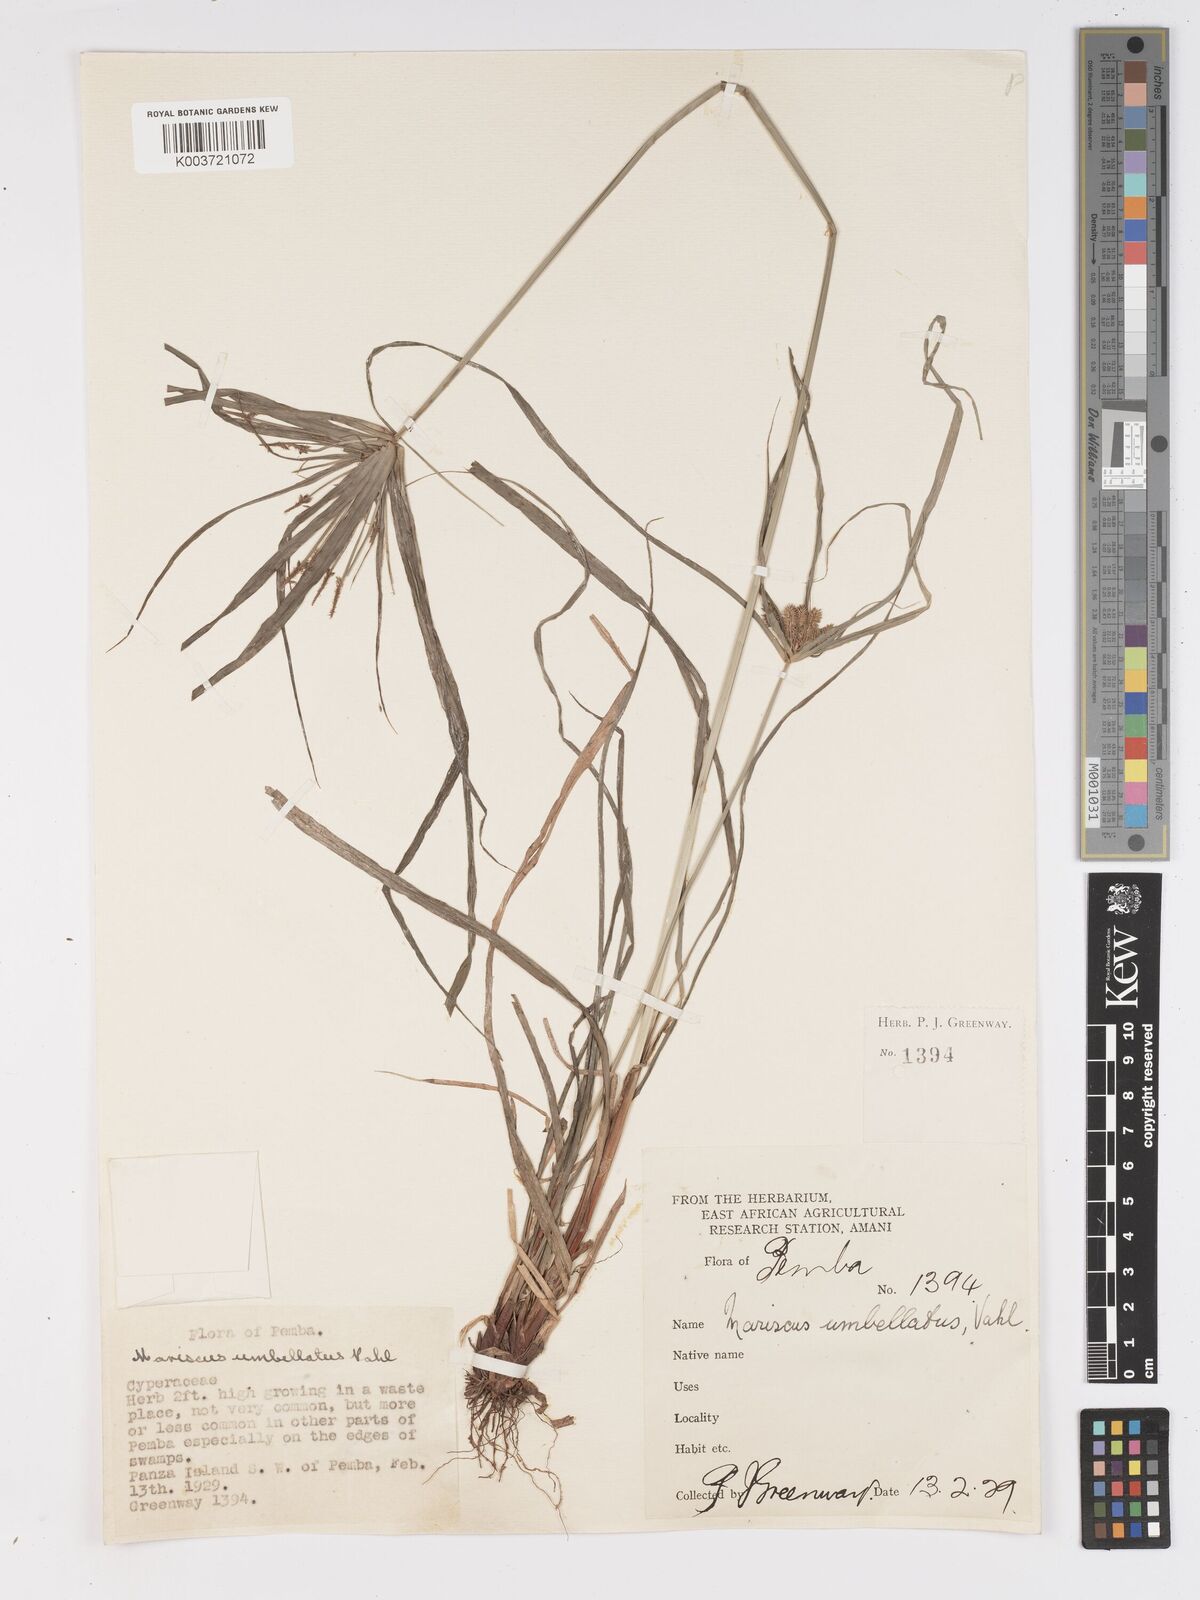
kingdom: Plantae
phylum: Tracheophyta
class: Liliopsida
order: Poales
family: Cyperaceae
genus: Cyperus
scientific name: Cyperus
